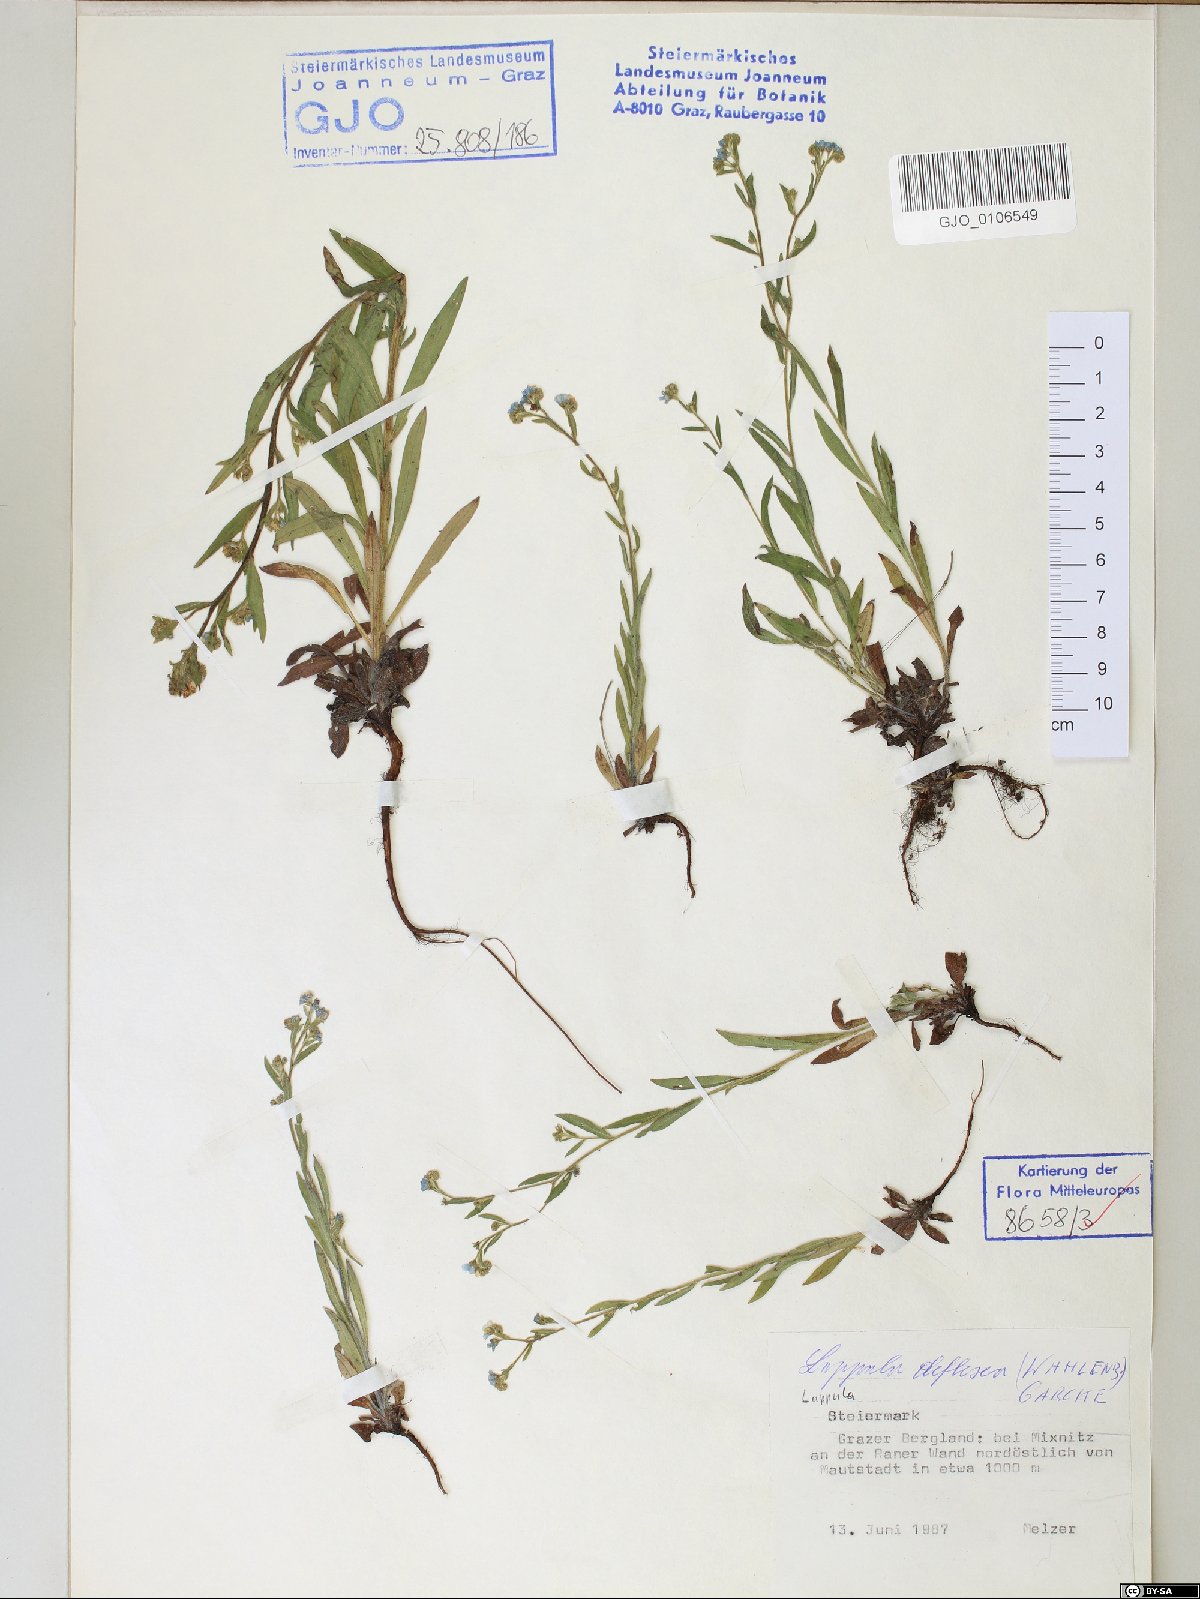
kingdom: Plantae
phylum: Tracheophyta
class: Magnoliopsida
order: Boraginales
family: Boraginaceae
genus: Hackelia
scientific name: Hackelia deflexa
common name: Nodding stickseed
